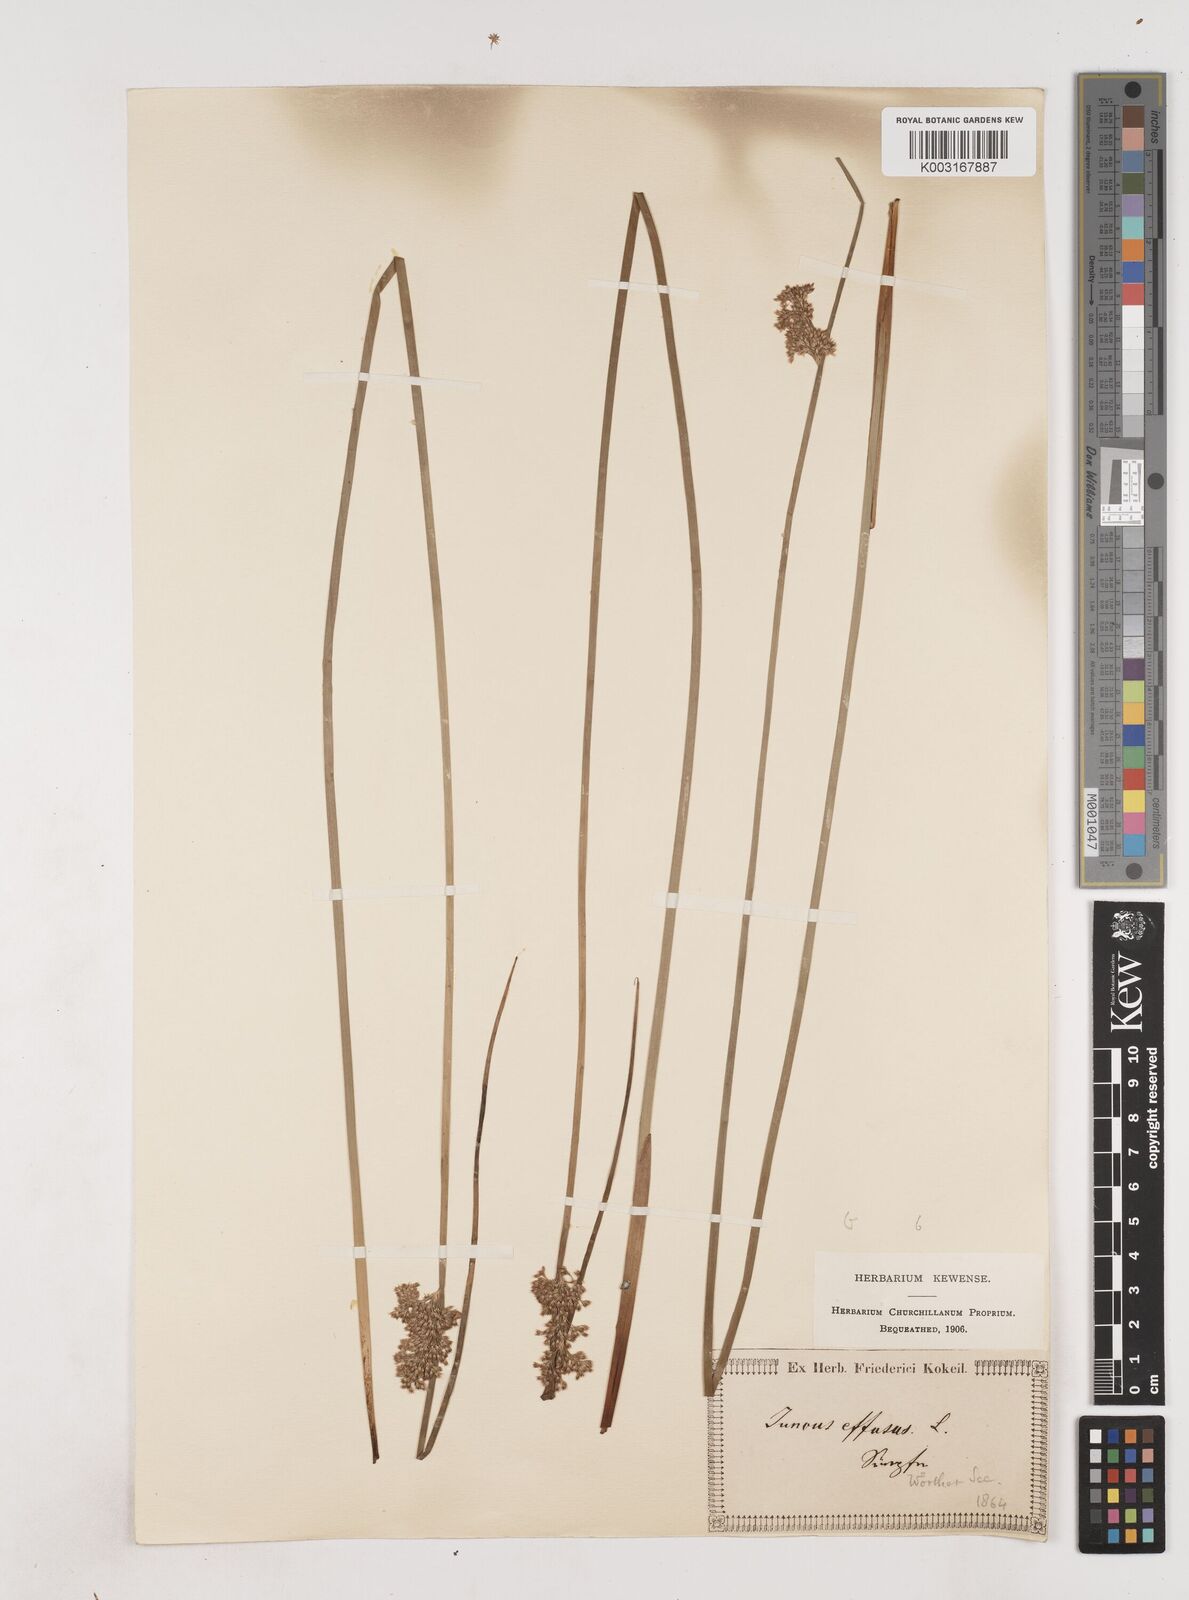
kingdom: Plantae
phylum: Tracheophyta
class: Liliopsida
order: Poales
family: Juncaceae
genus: Juncus
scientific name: Juncus effusus
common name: Soft rush
